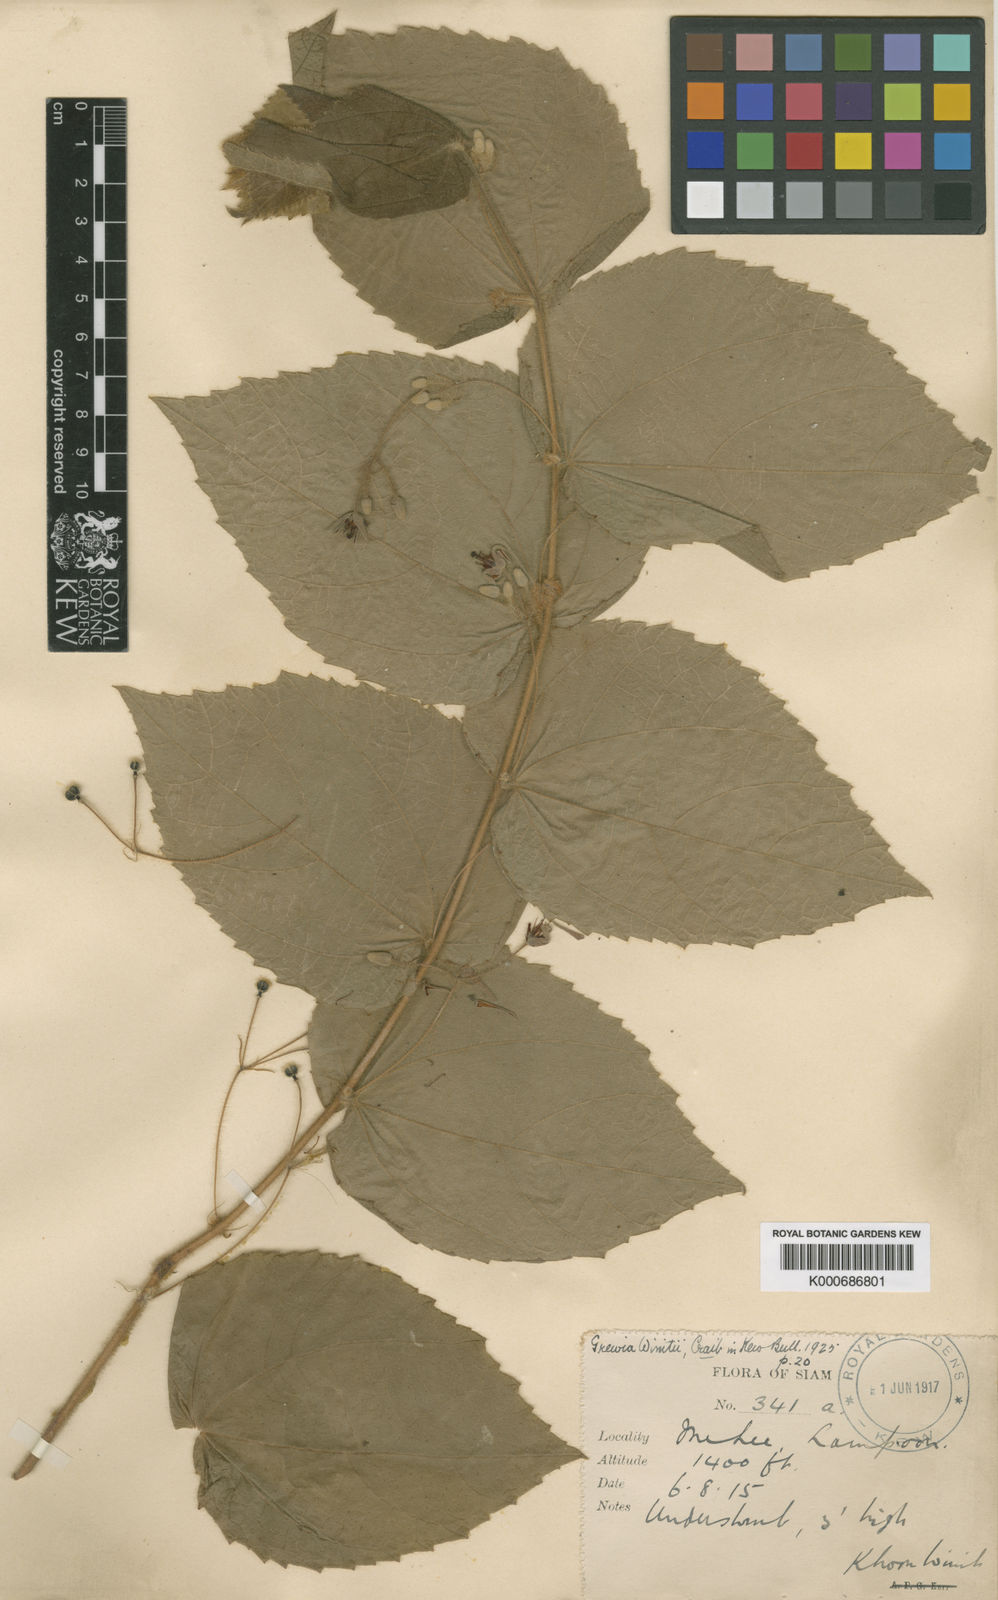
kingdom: Plantae
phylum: Tracheophyta
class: Magnoliopsida
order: Malvales
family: Malvaceae
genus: Grewia
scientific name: Grewia winitii
